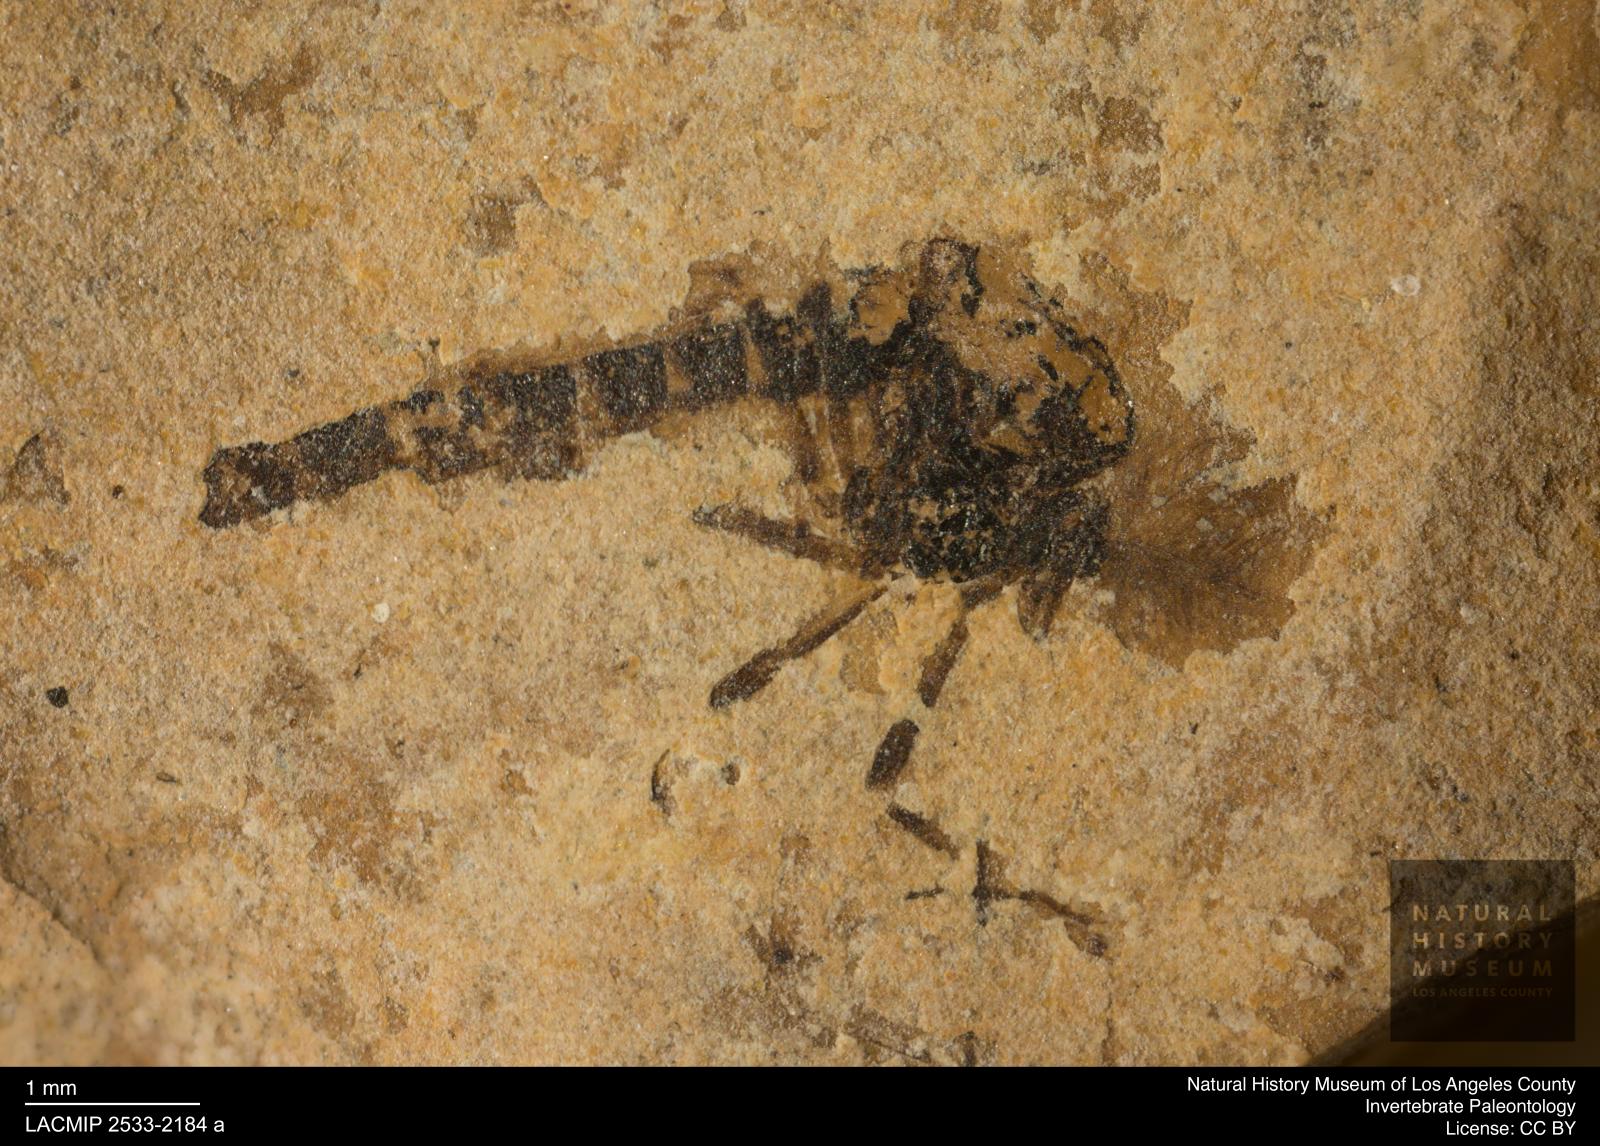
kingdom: Animalia
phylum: Arthropoda
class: Insecta
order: Diptera
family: Chironomidae
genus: Procladius
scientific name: Procladius
